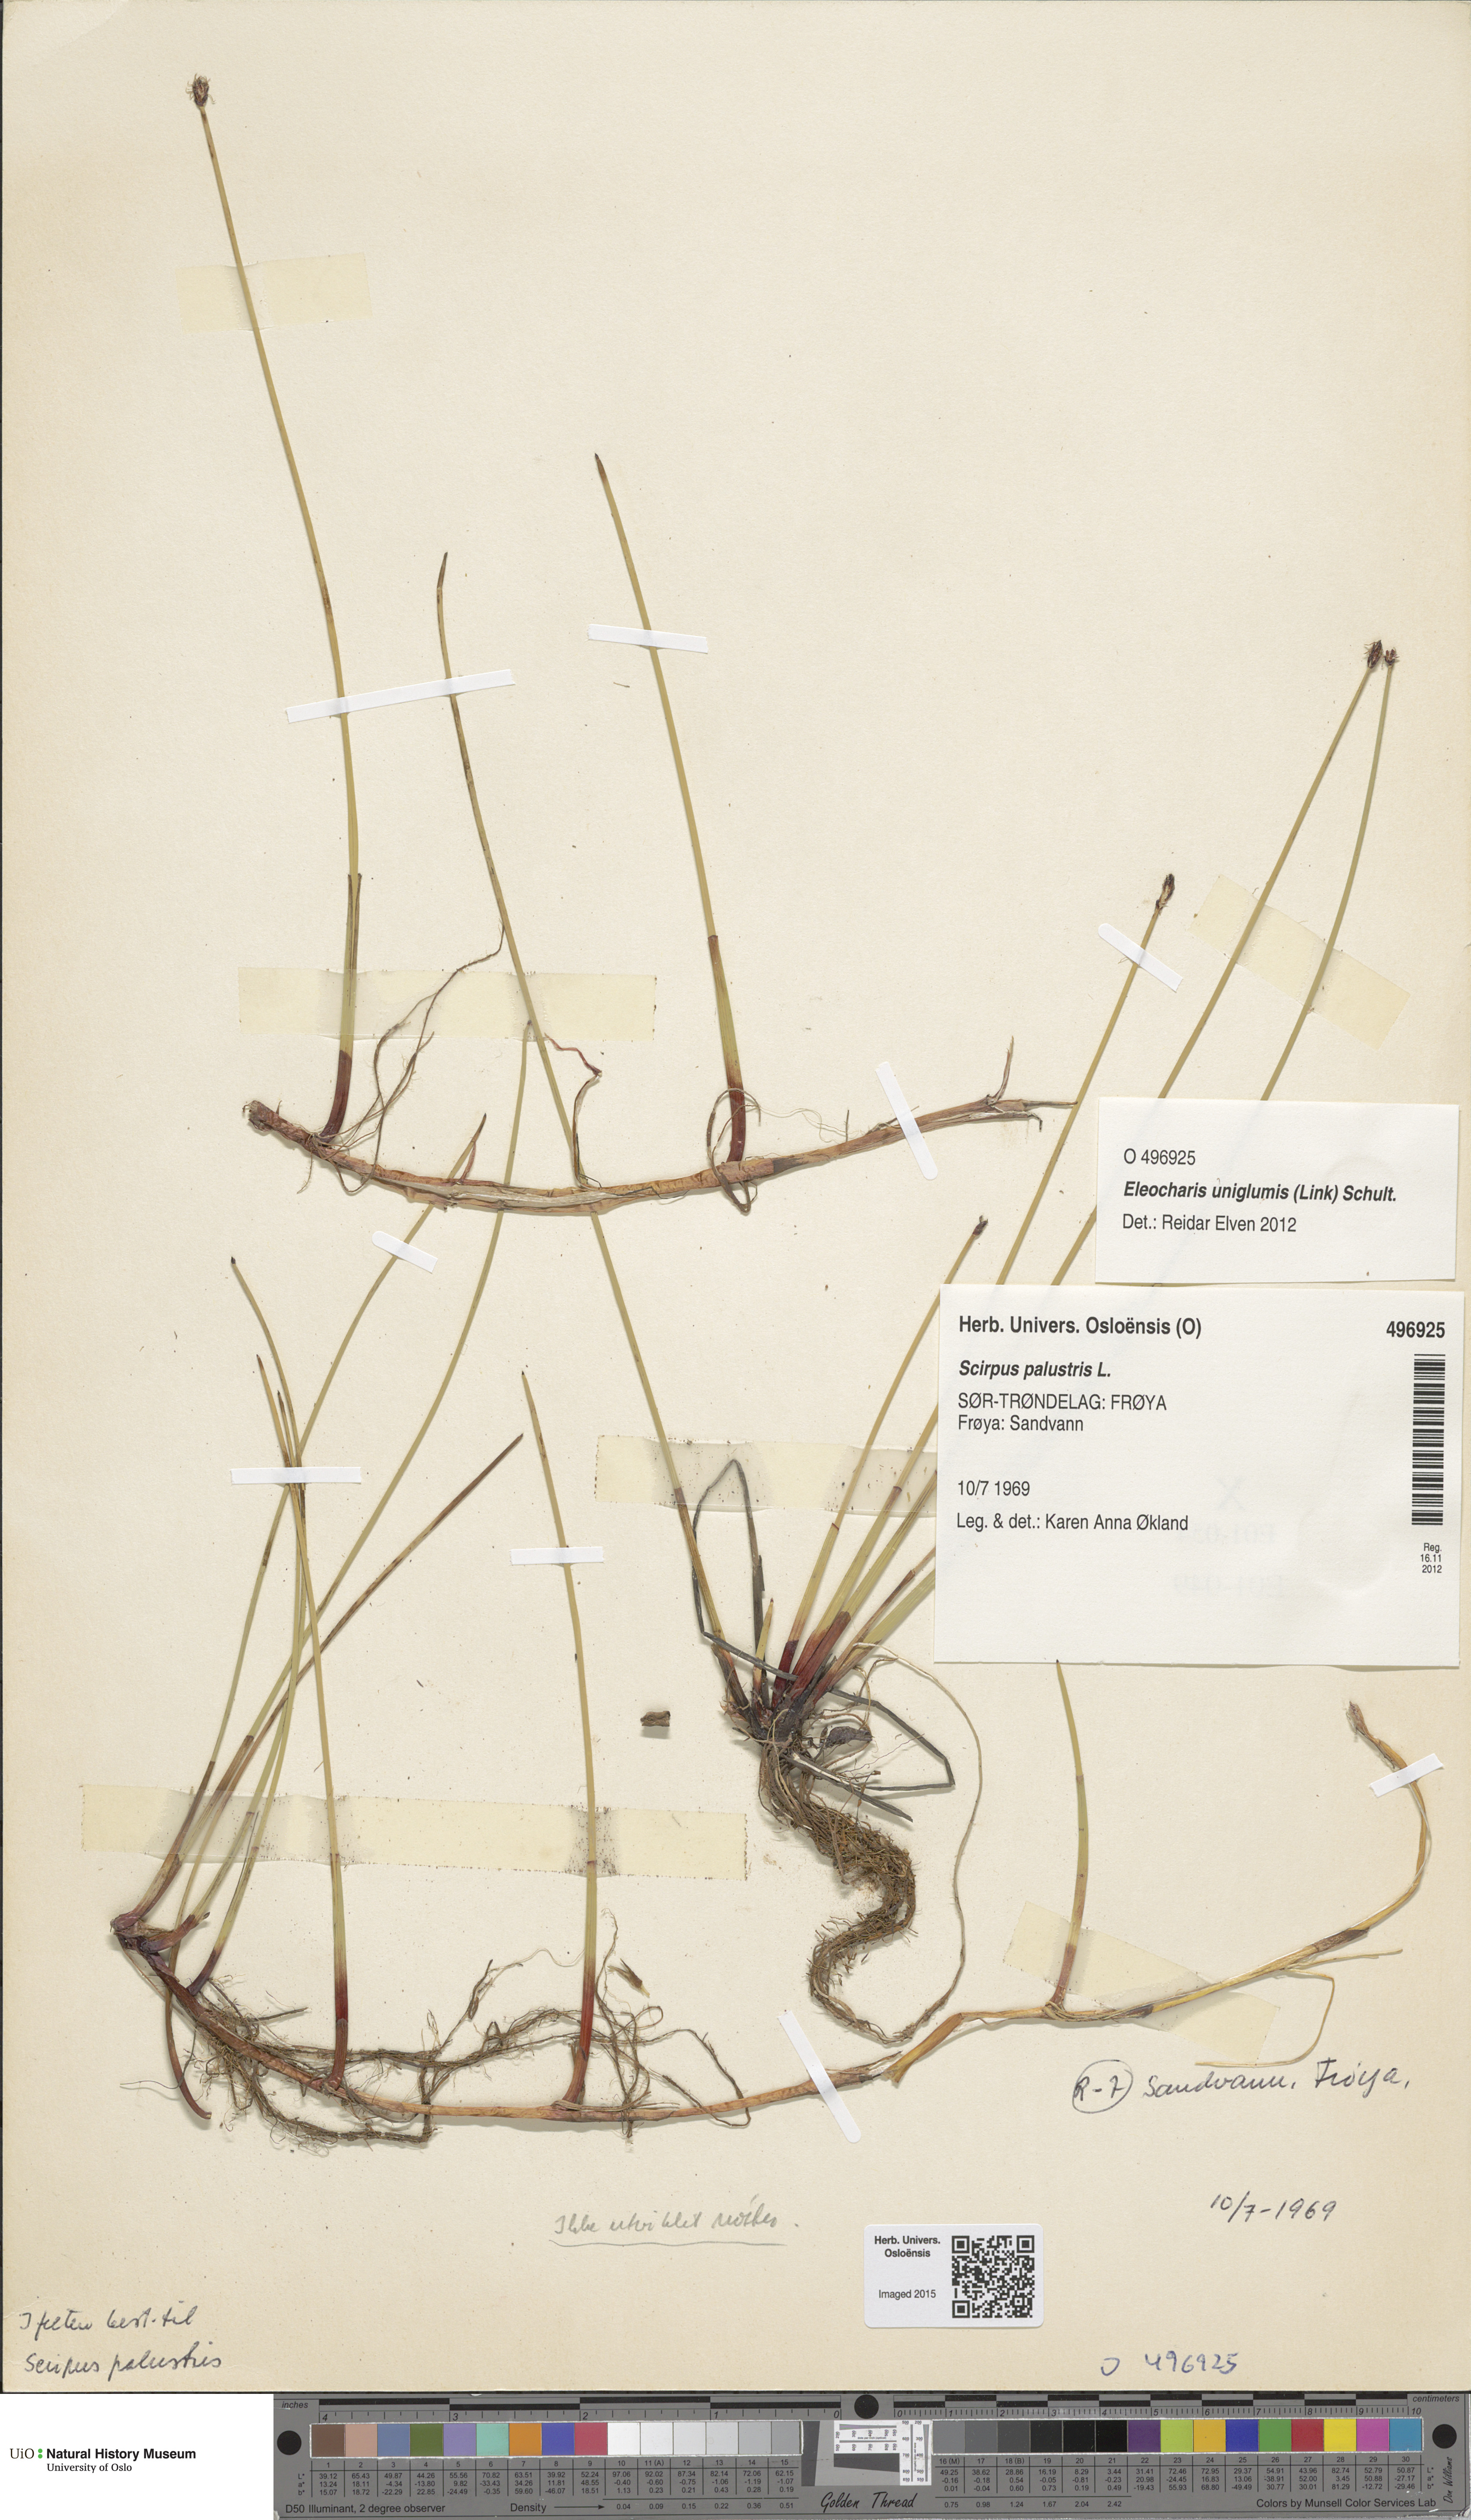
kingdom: Plantae
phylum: Tracheophyta
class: Liliopsida
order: Poales
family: Cyperaceae
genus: Eleocharis
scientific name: Eleocharis palustris
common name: Common spike-rush
